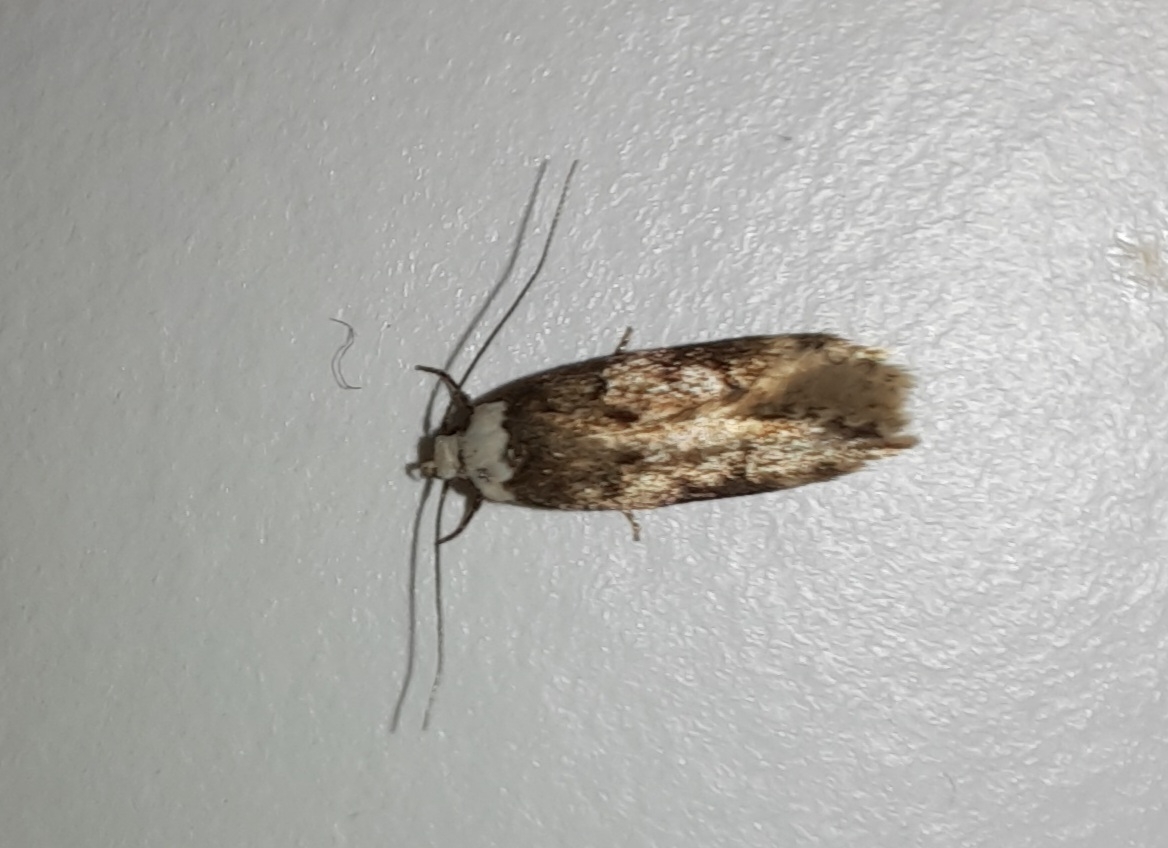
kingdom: Animalia
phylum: Arthropoda
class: Insecta
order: Lepidoptera
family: Oecophoridae
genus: Endrosis
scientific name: Endrosis sarcitrella
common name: Klistermøl
